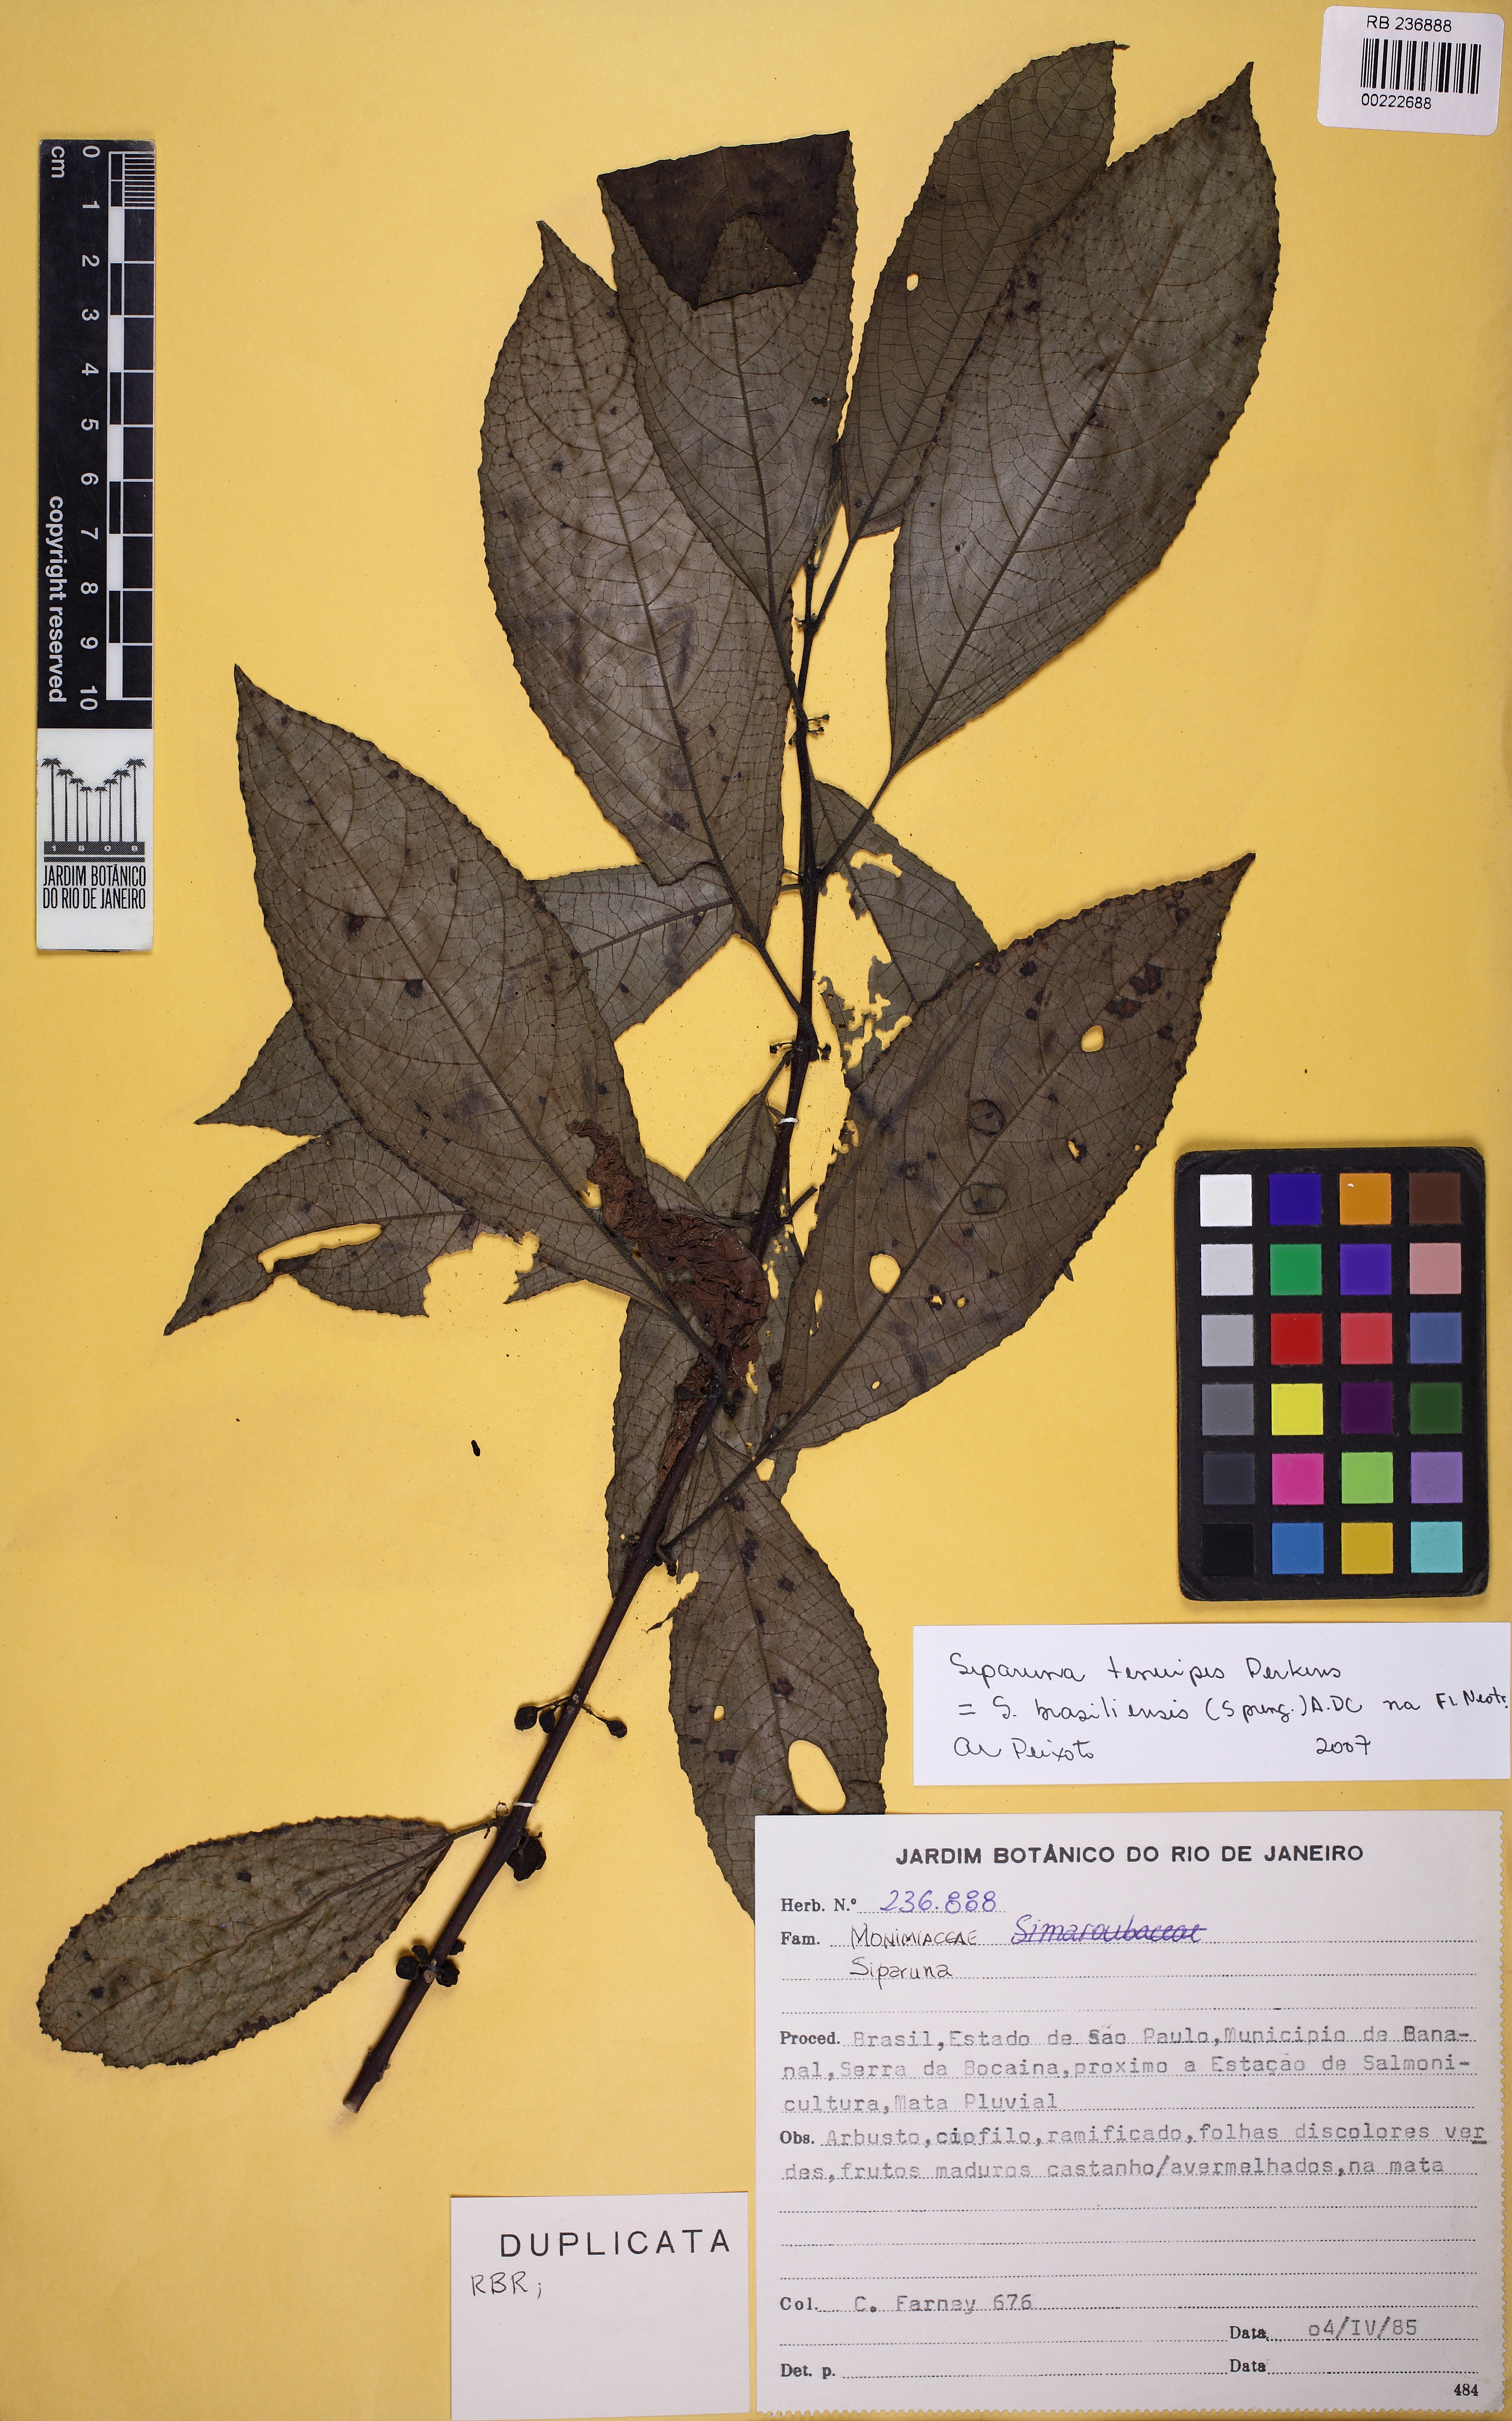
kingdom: Plantae
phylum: Tracheophyta
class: Magnoliopsida
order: Laurales
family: Siparunaceae
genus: Siparuna
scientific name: Siparuna brasiliensis
